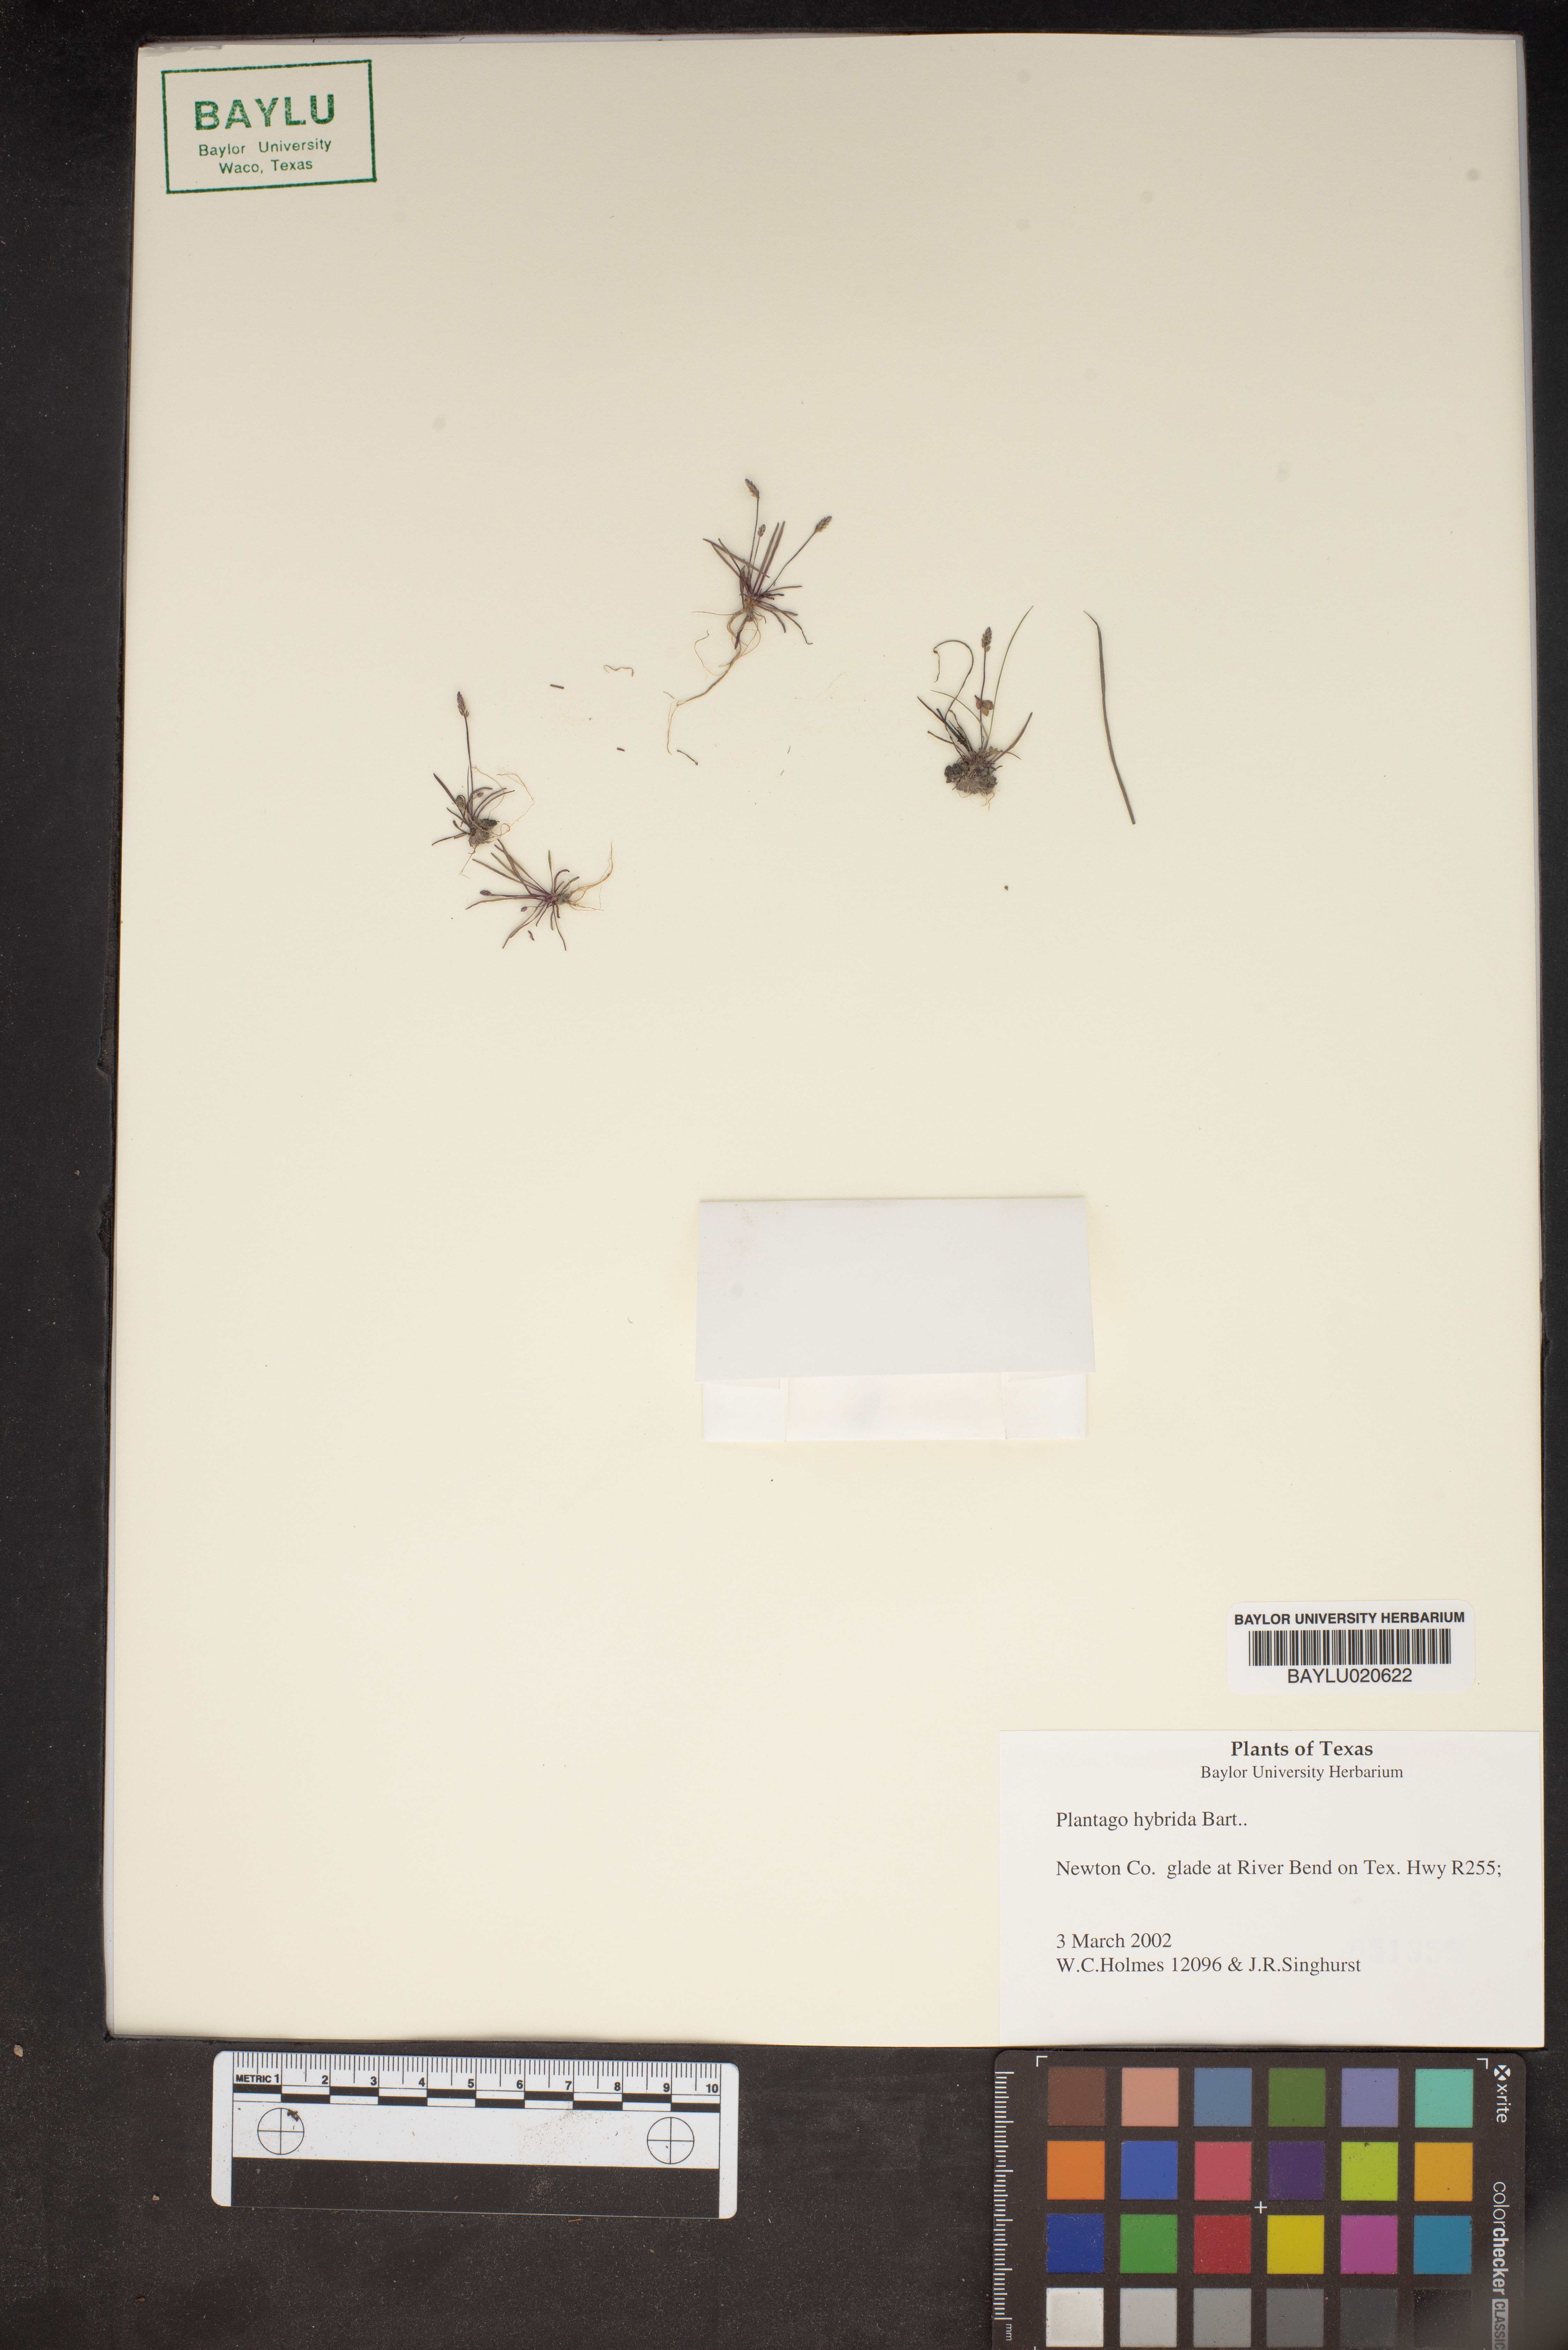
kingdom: Plantae
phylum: Tracheophyta
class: Magnoliopsida
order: Lamiales
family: Plantaginaceae
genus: Plantago
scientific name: Plantago pusilla
